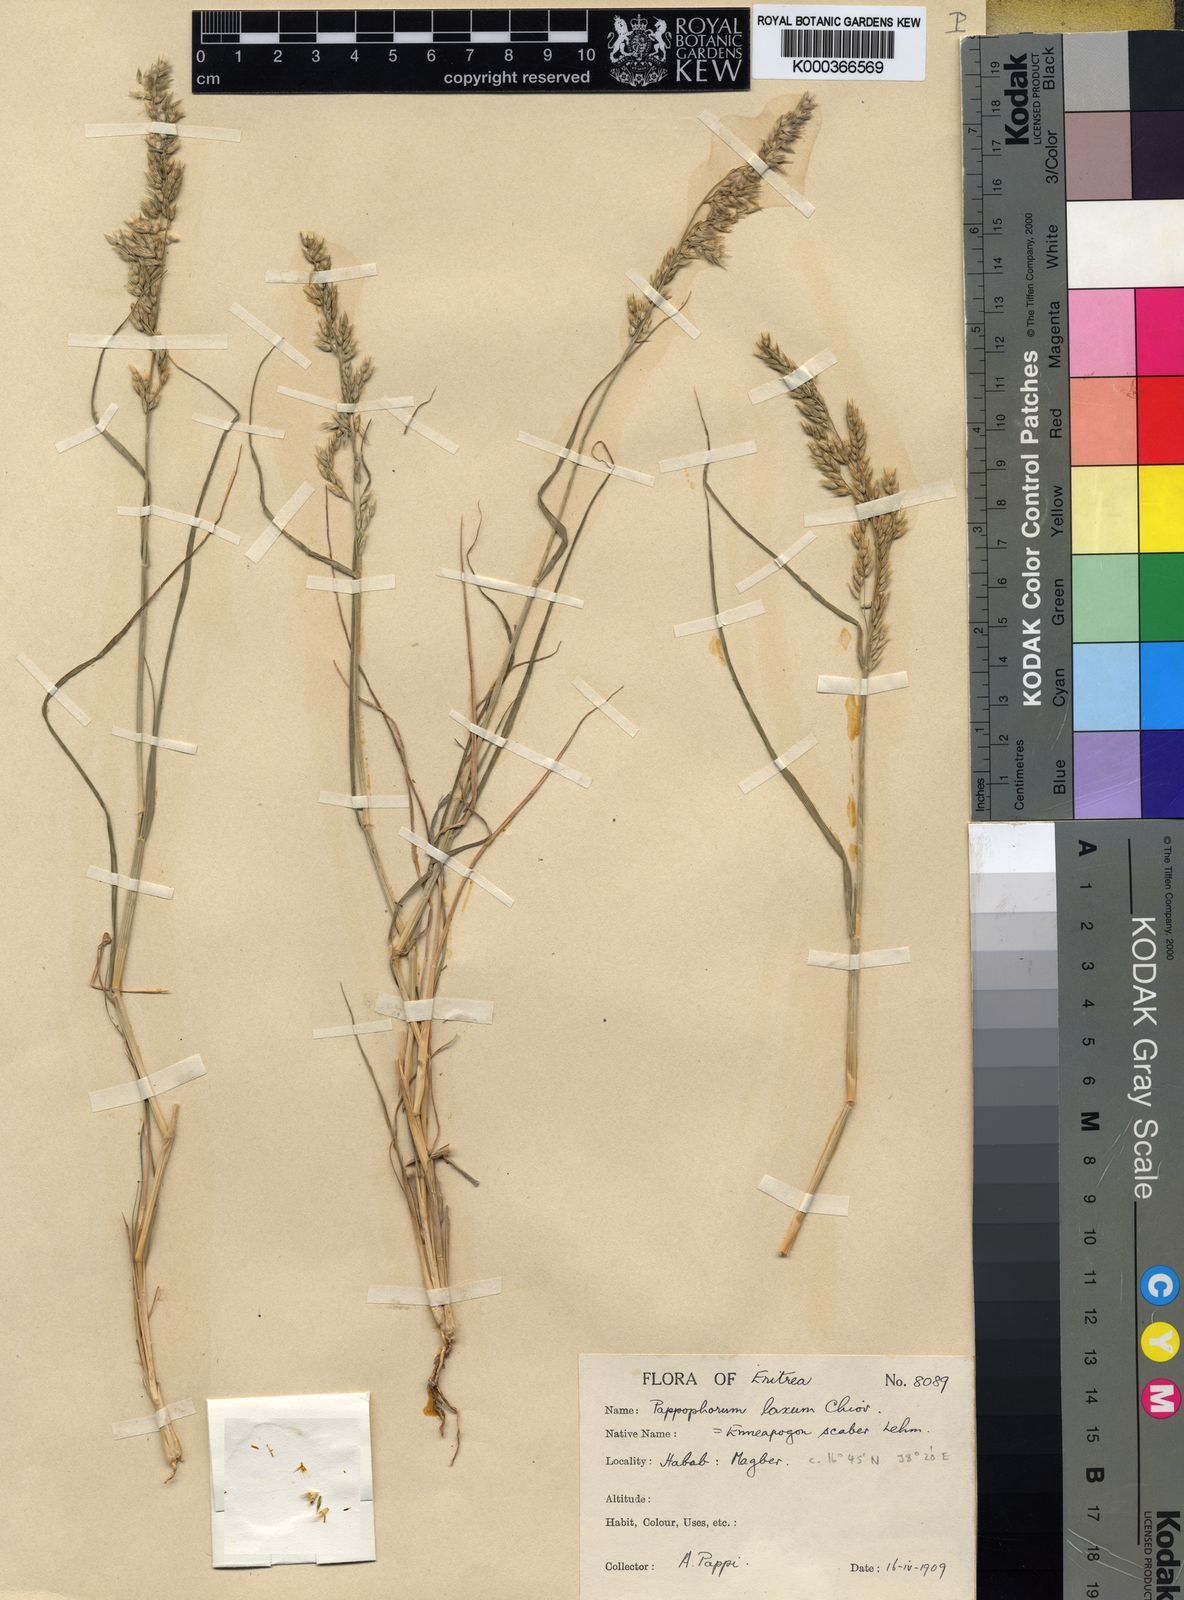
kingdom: Plantae
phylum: Tracheophyta
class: Liliopsida
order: Poales
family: Poaceae
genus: Enneapogon
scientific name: Enneapogon scaber
